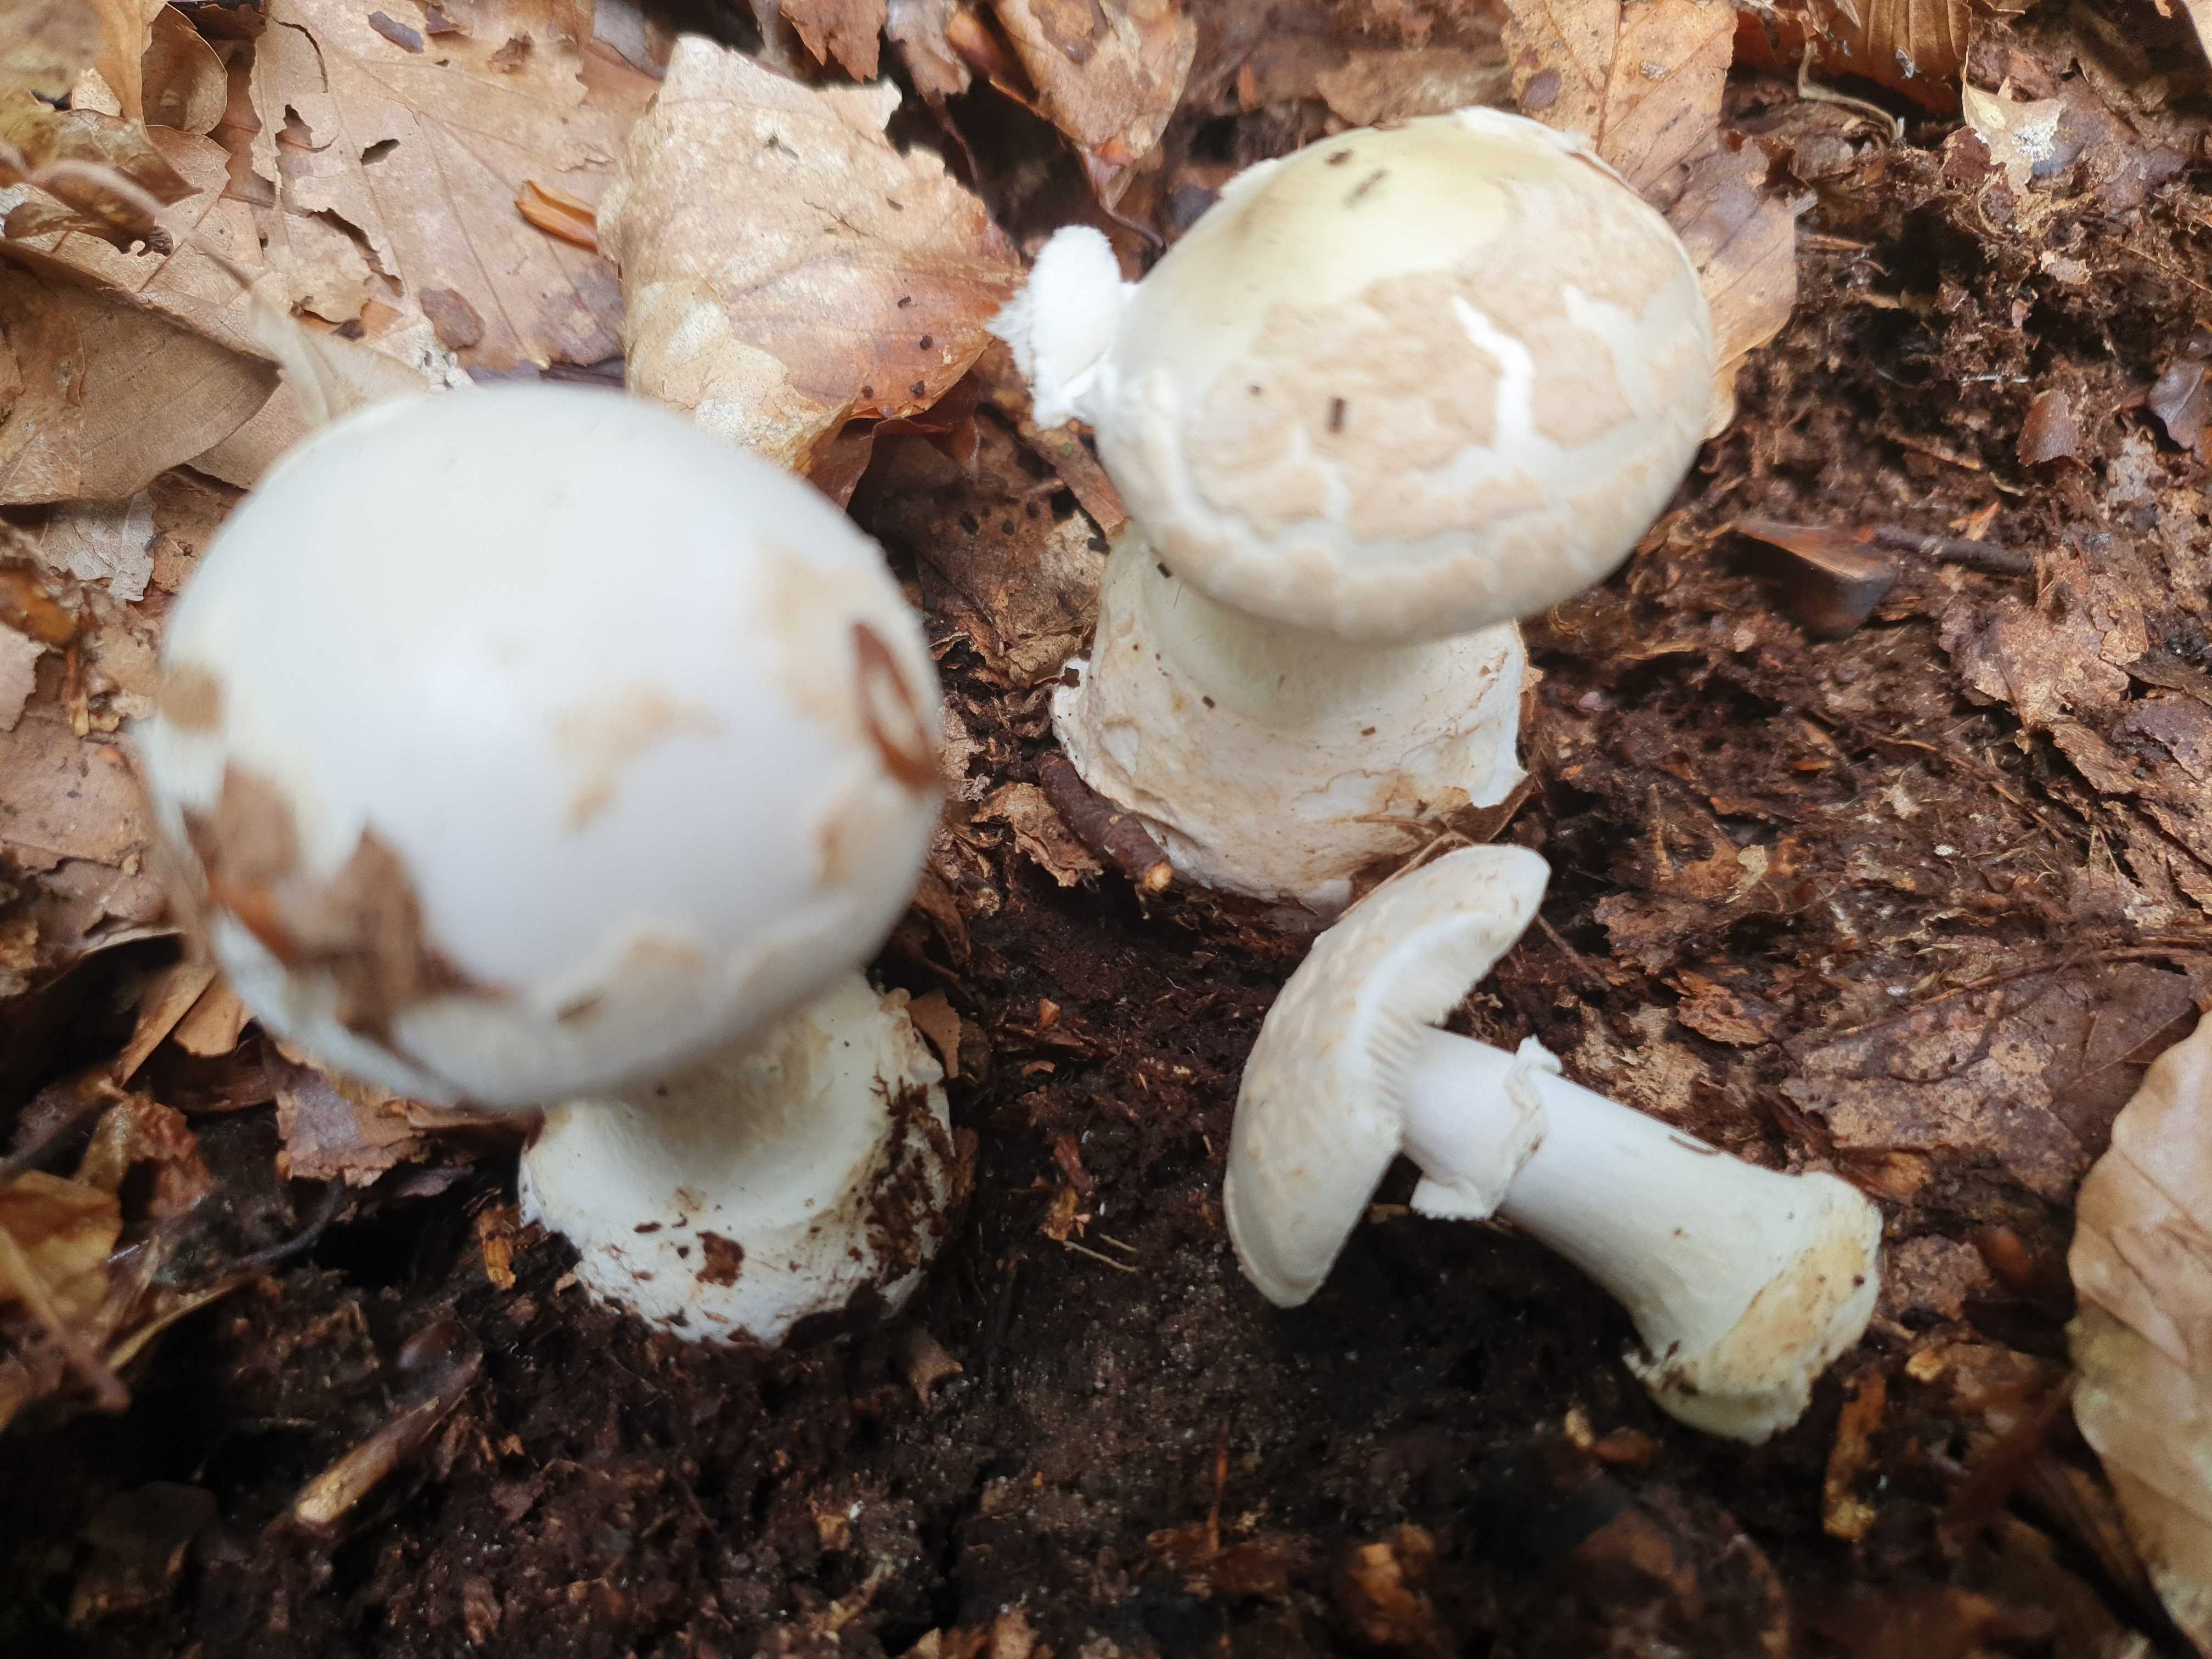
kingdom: Fungi
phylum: Basidiomycota
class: Agaricomycetes
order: Agaricales
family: Amanitaceae
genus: Amanita
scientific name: Amanita citrina
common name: kugleknoldet fluesvamp
